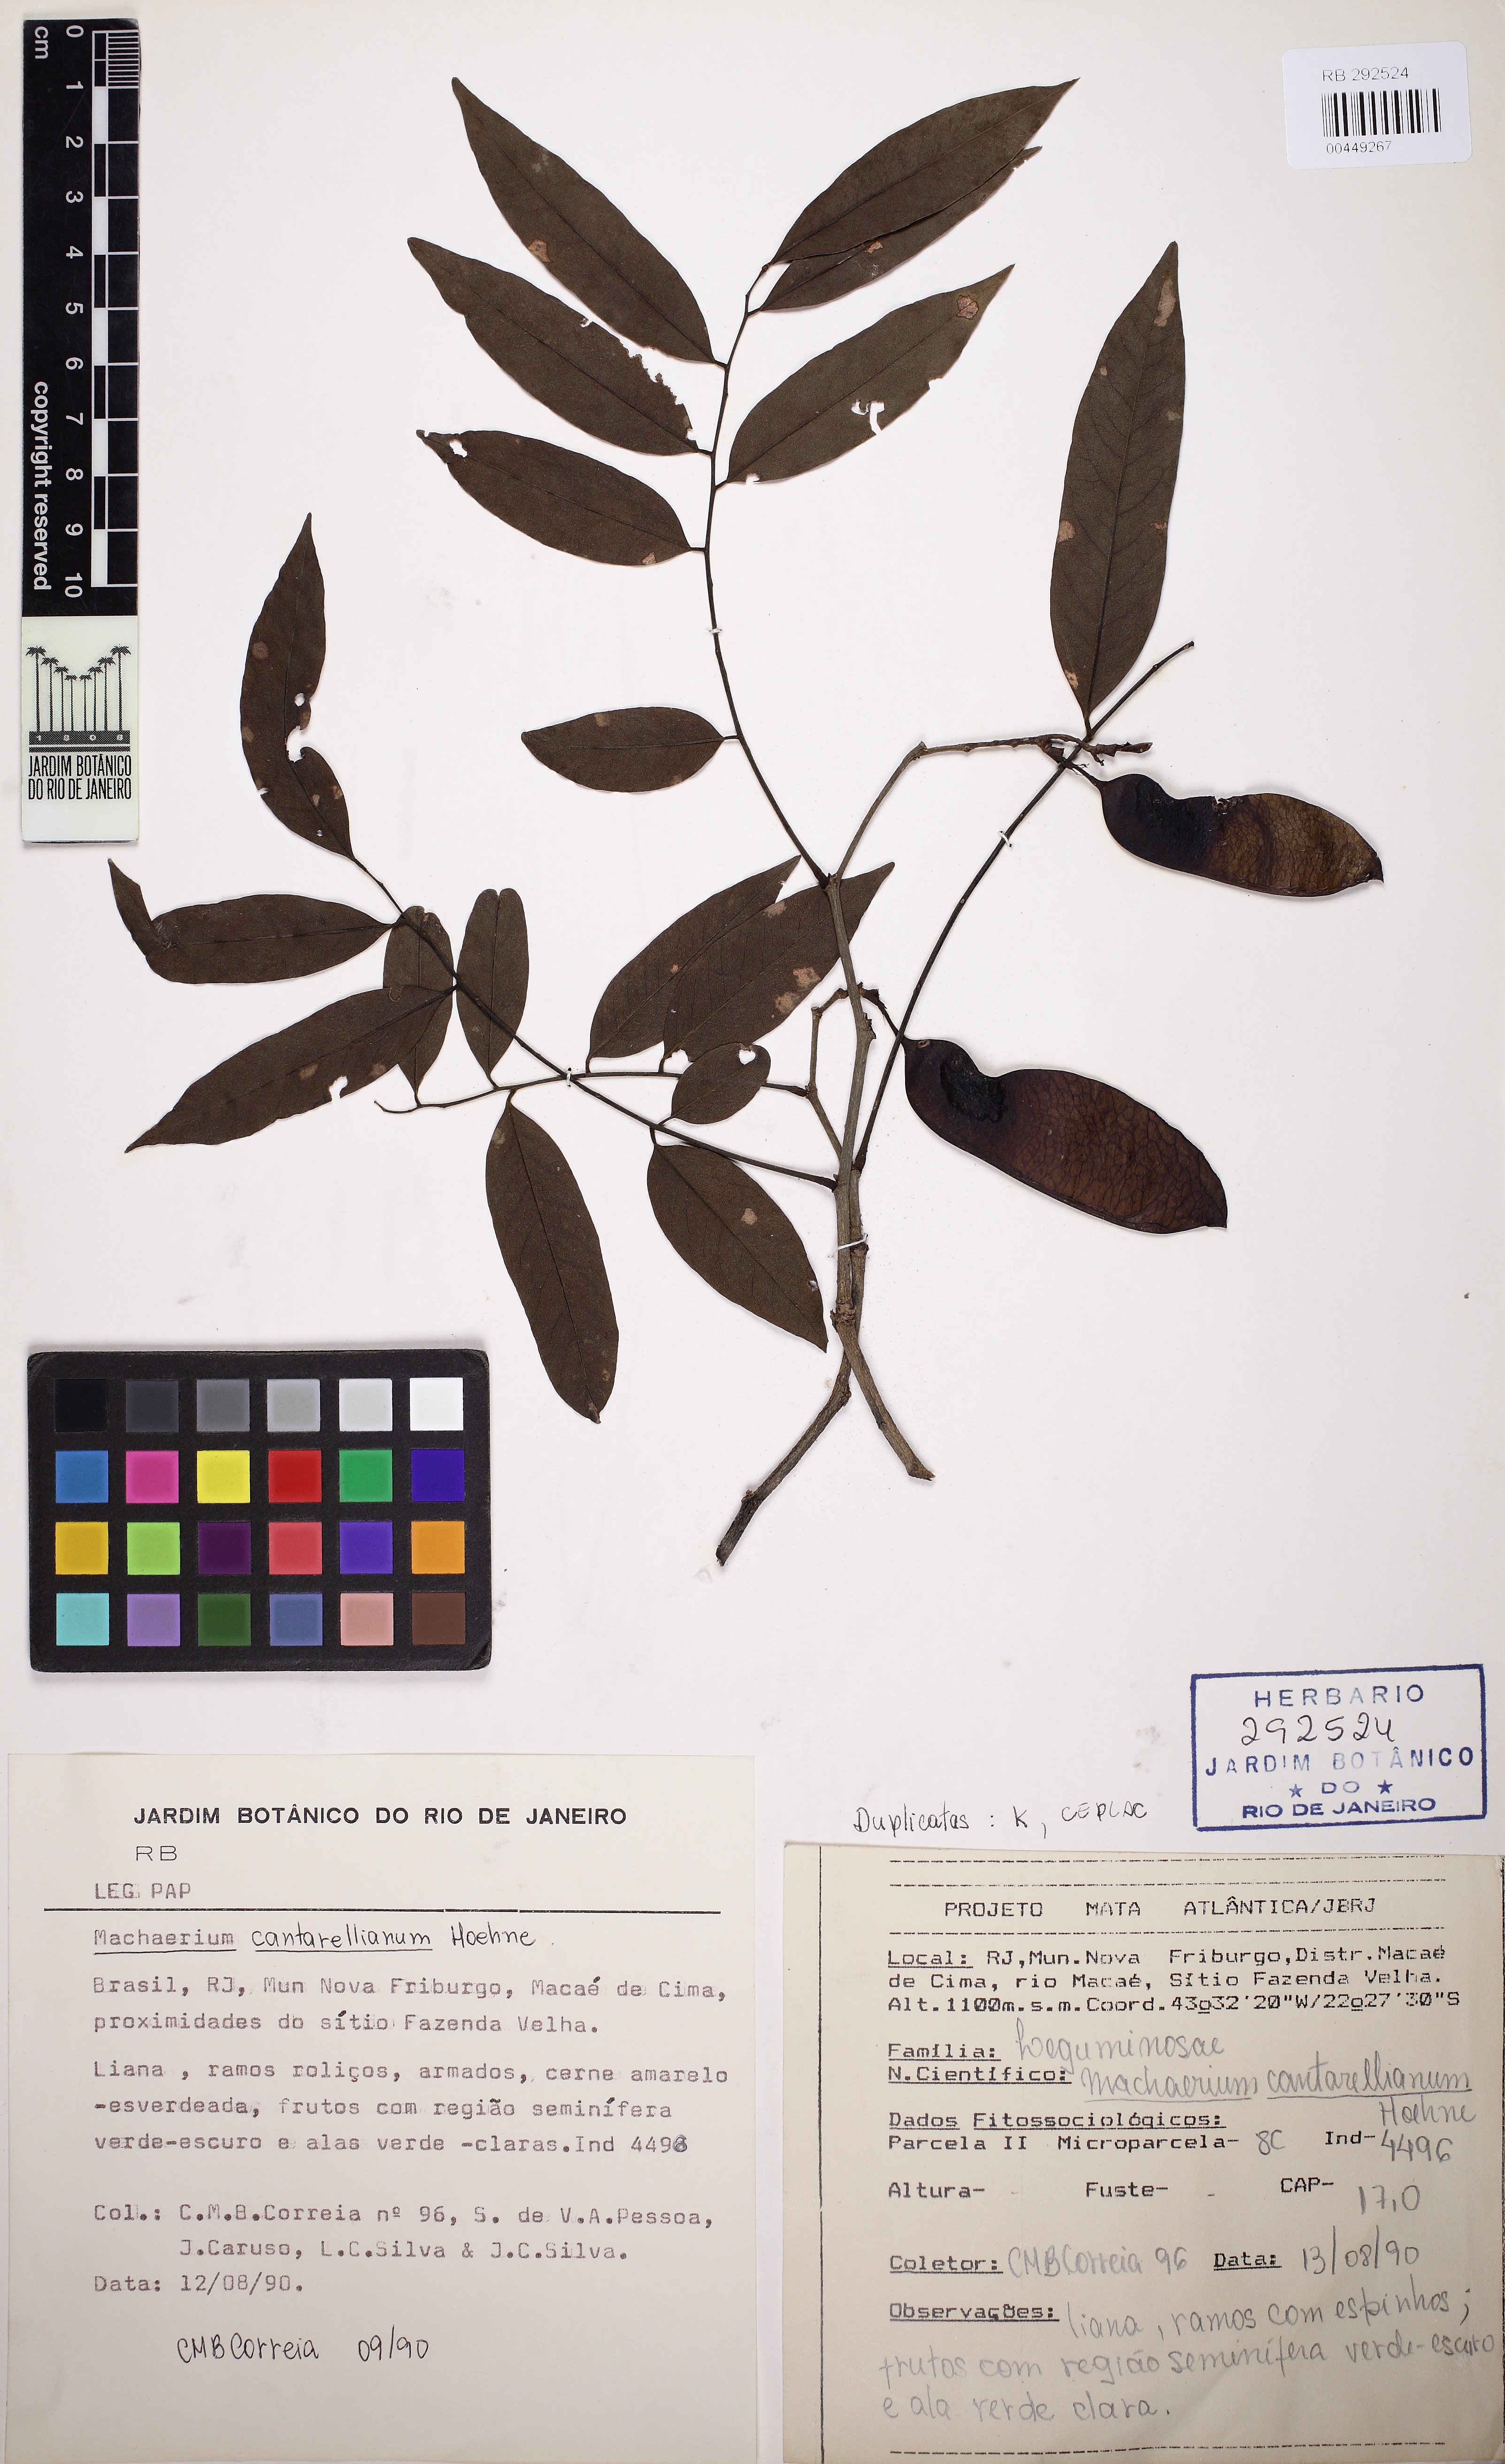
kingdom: Plantae
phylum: Tracheophyta
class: Magnoliopsida
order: Fabales
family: Fabaceae
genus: Machaerium
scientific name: Machaerium cantarellianum
